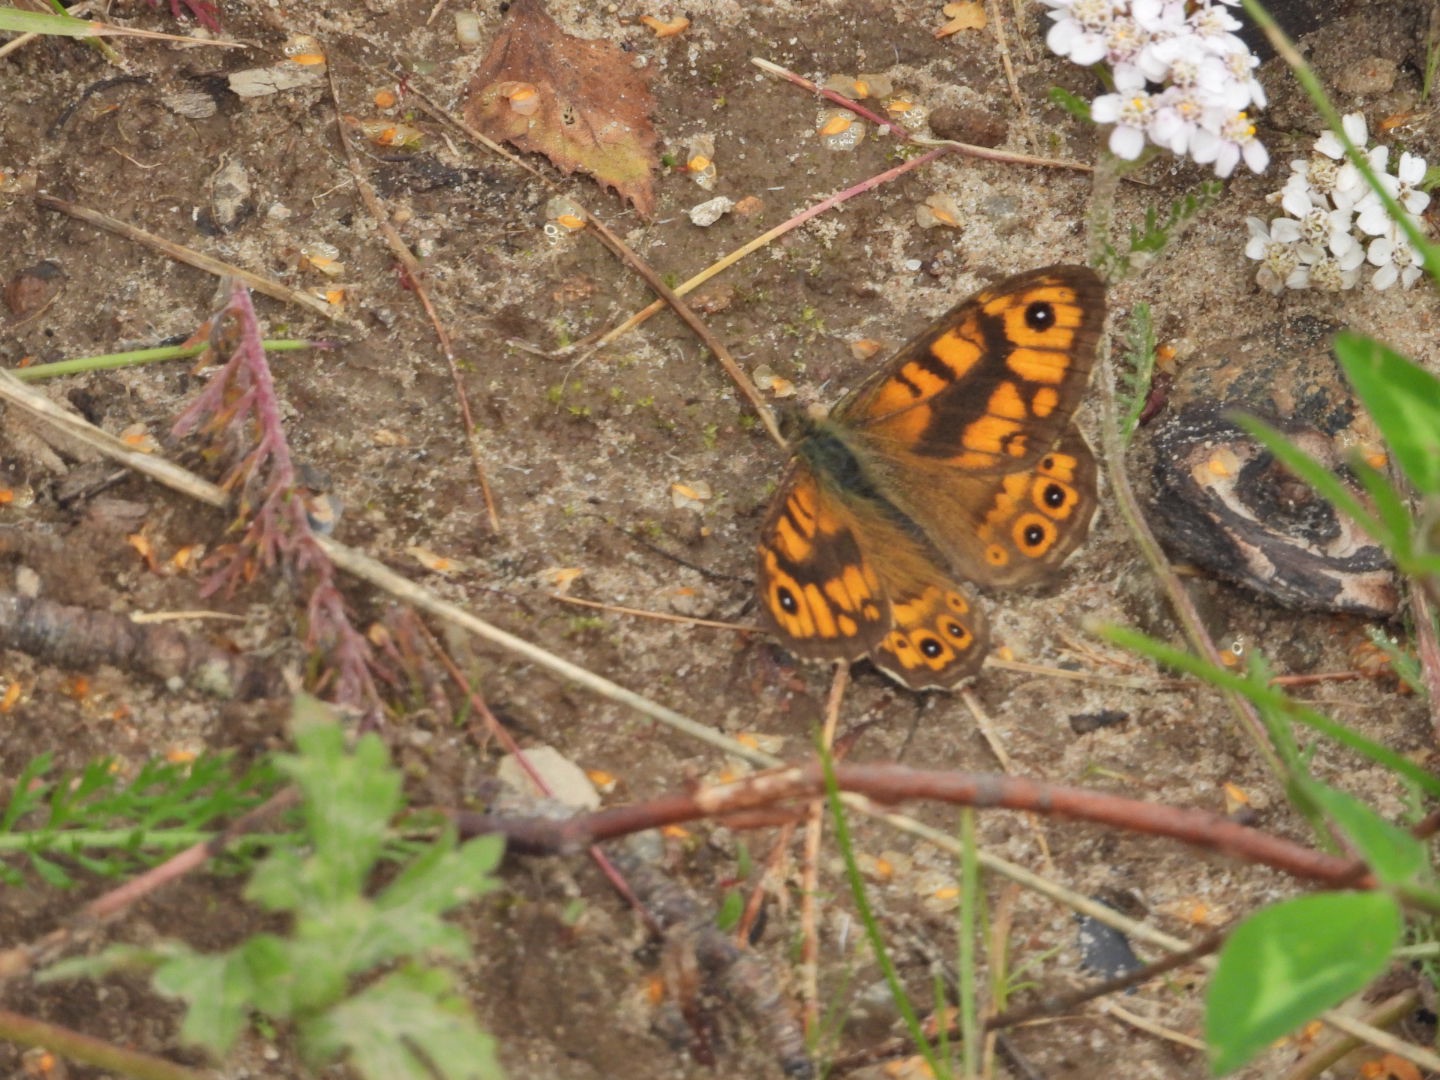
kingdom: Animalia
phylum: Arthropoda
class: Insecta
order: Lepidoptera
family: Nymphalidae
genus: Pararge
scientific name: Pararge Lasiommata megera
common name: Vejrandøje
